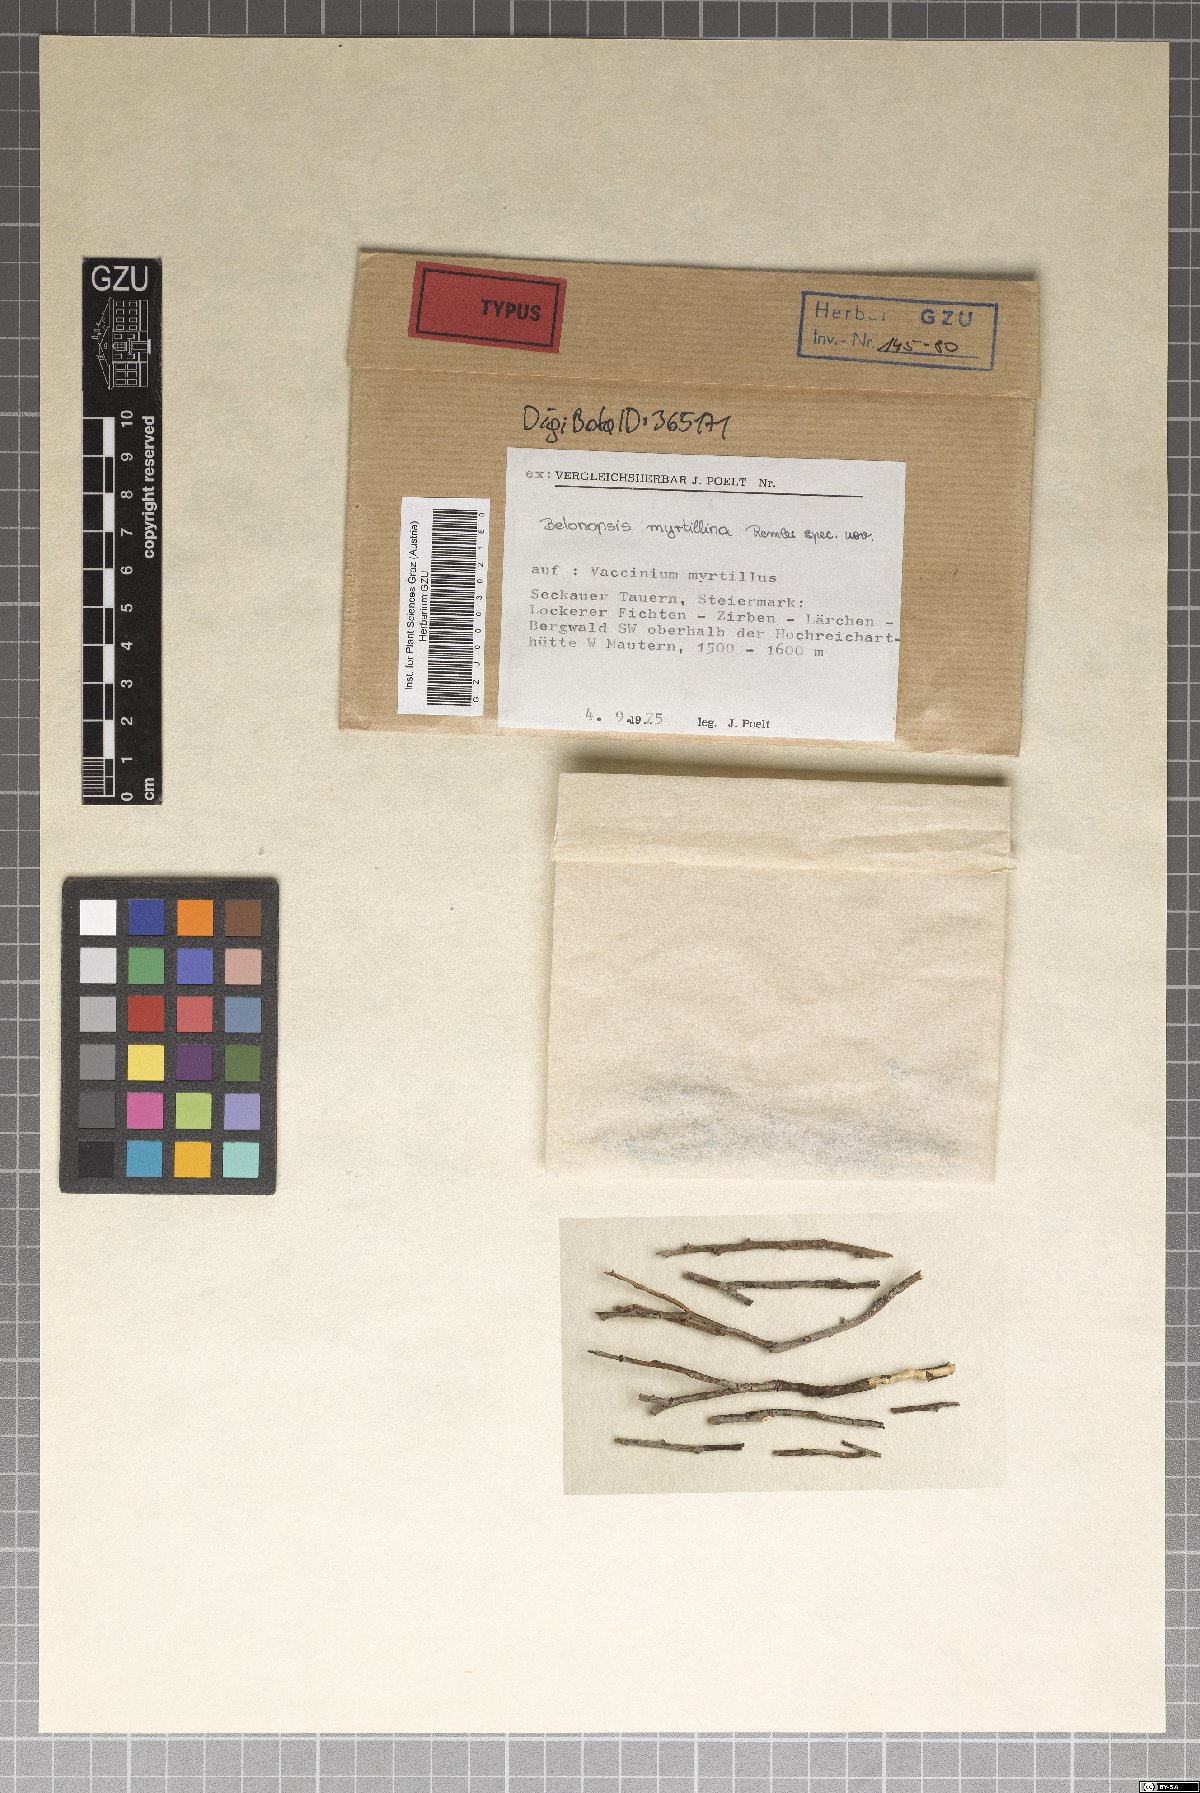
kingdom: Fungi
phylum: Ascomycota
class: Leotiomycetes
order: Helotiales
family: Mollisiaceae
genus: Belonopsis
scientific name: Belonopsis myrtillina
